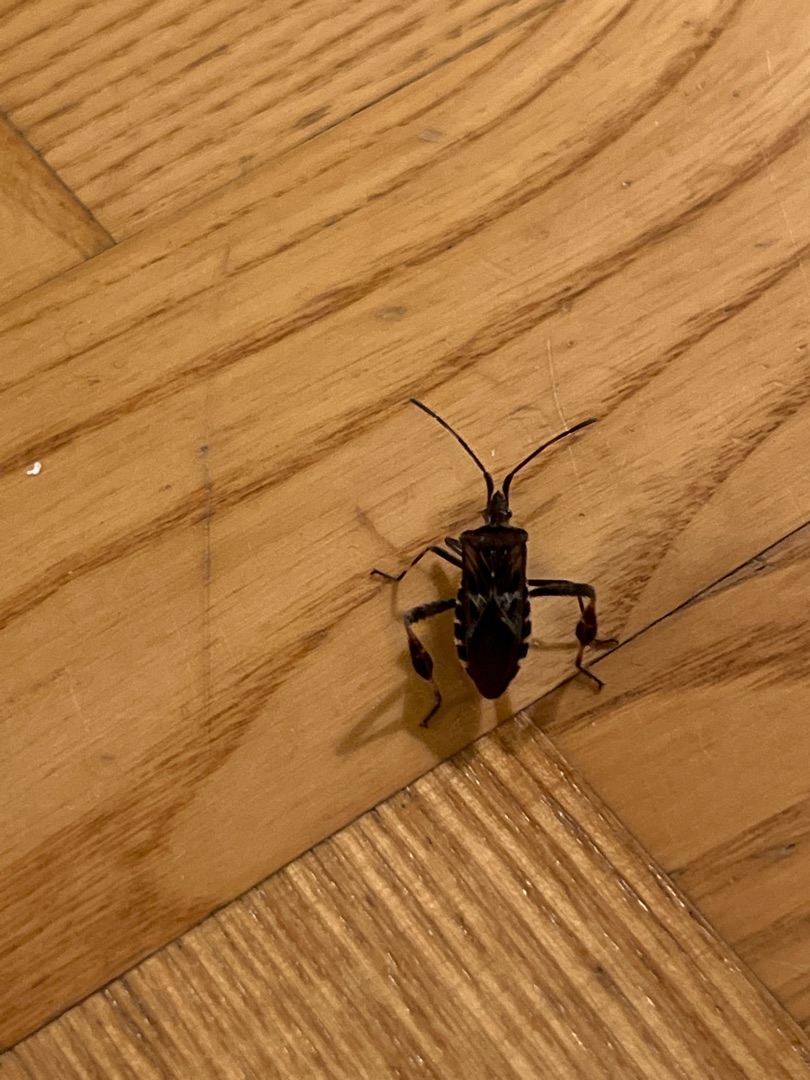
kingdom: Animalia
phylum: Arthropoda
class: Insecta
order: Hemiptera
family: Coreidae
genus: Leptoglossus
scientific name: Leptoglossus occidentalis
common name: Amerikansk fyrretæge
